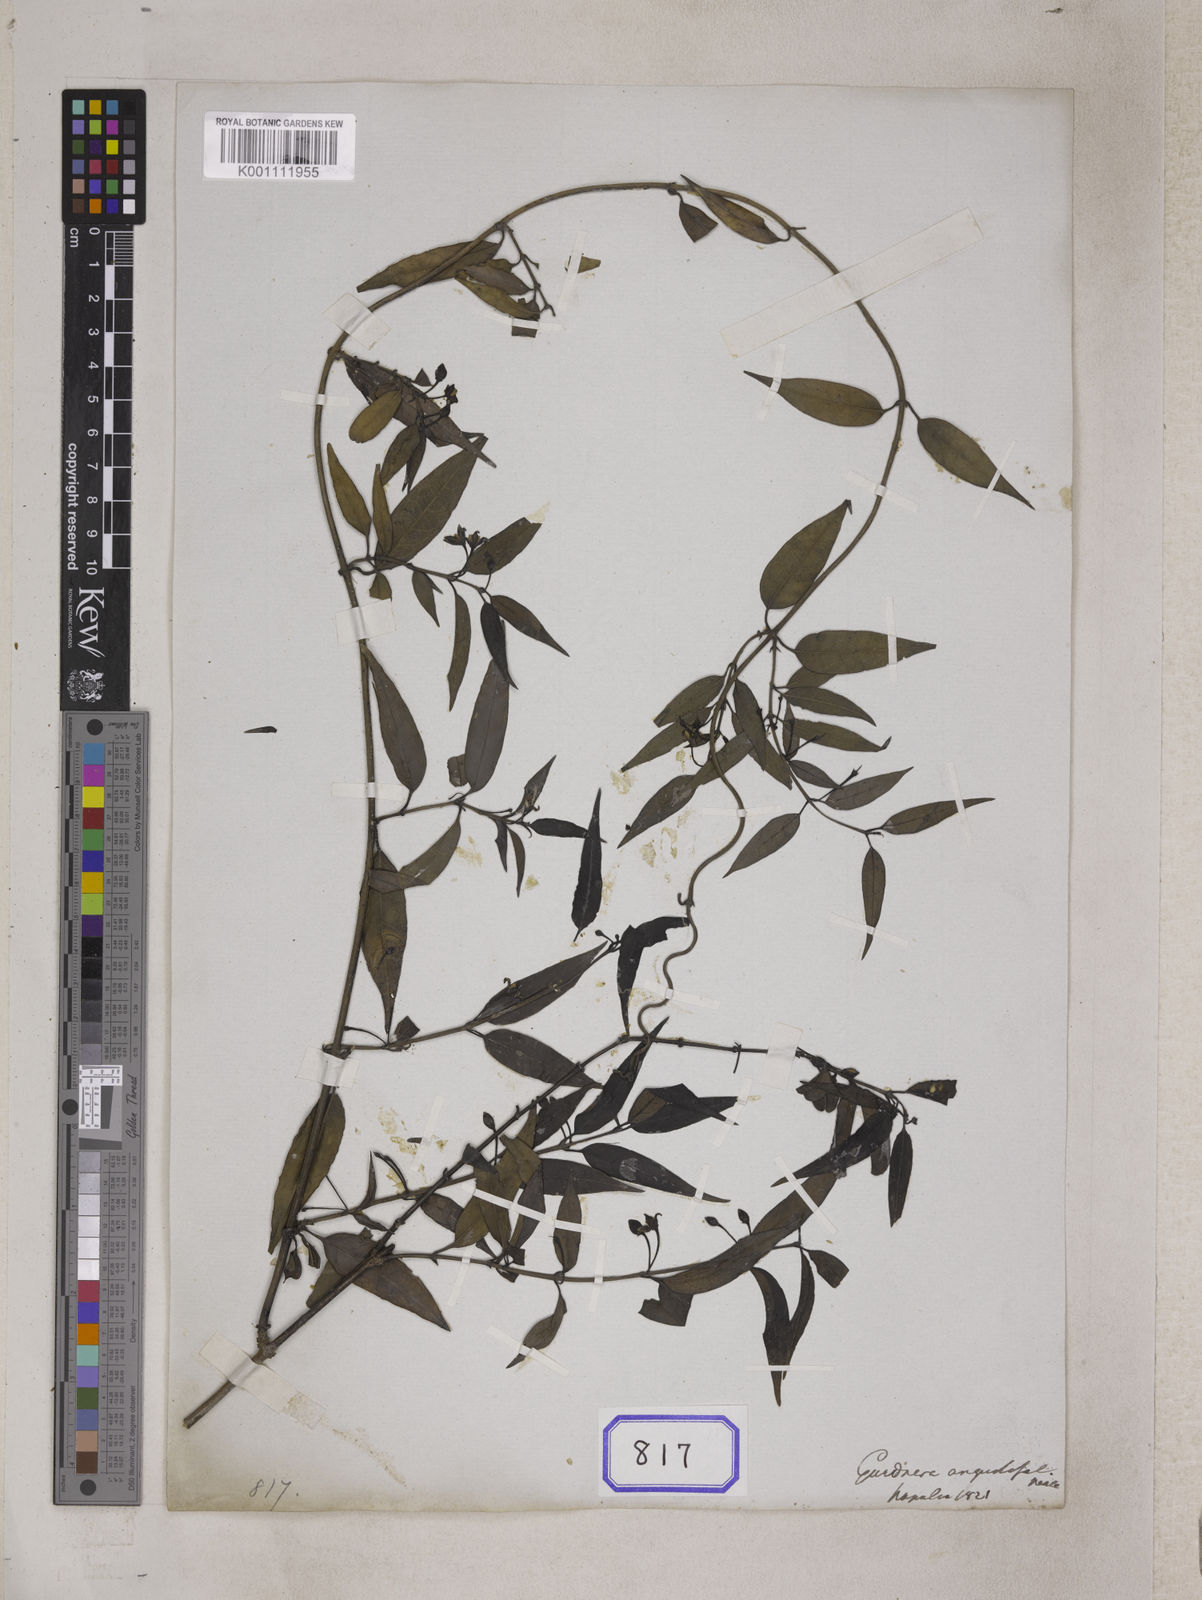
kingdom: Plantae
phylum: Tracheophyta
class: Magnoliopsida
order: Gentianales
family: Loganiaceae
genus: Gardneria
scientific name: Gardneria angustifolia
